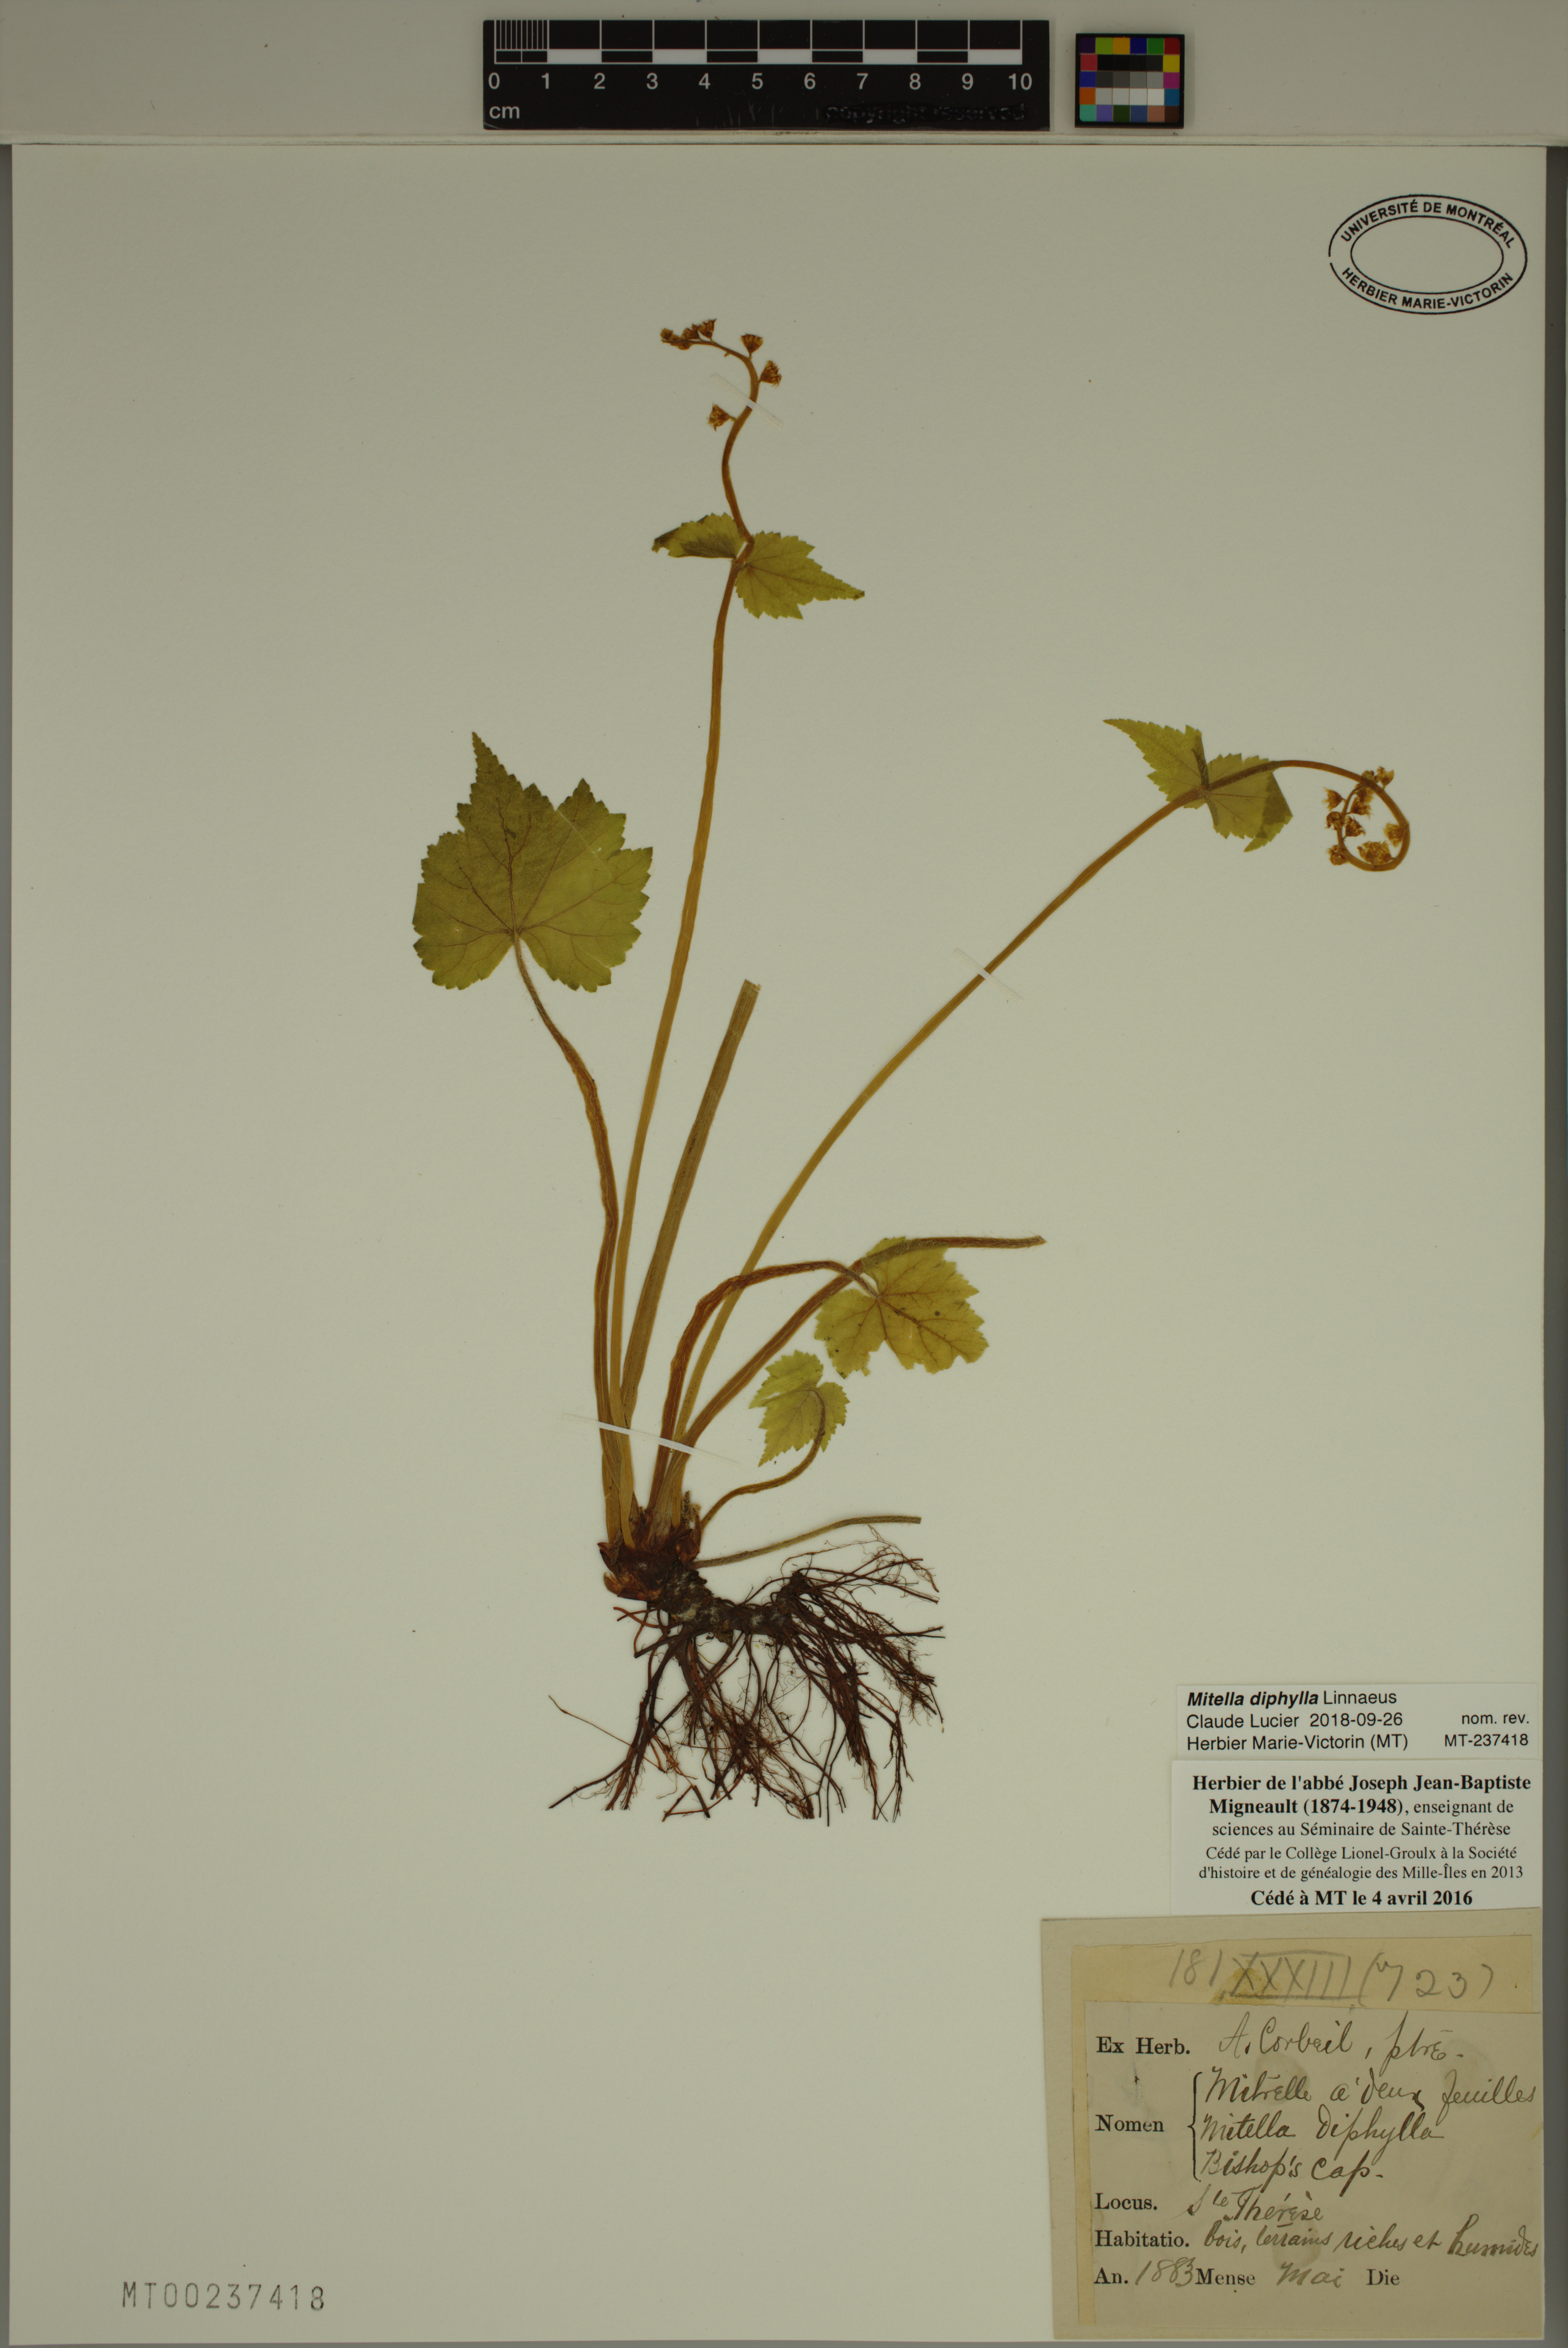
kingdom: Plantae
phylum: Tracheophyta
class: Magnoliopsida
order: Saxifragales
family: Saxifragaceae
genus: Mitella
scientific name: Mitella diphylla
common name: Coolwort
